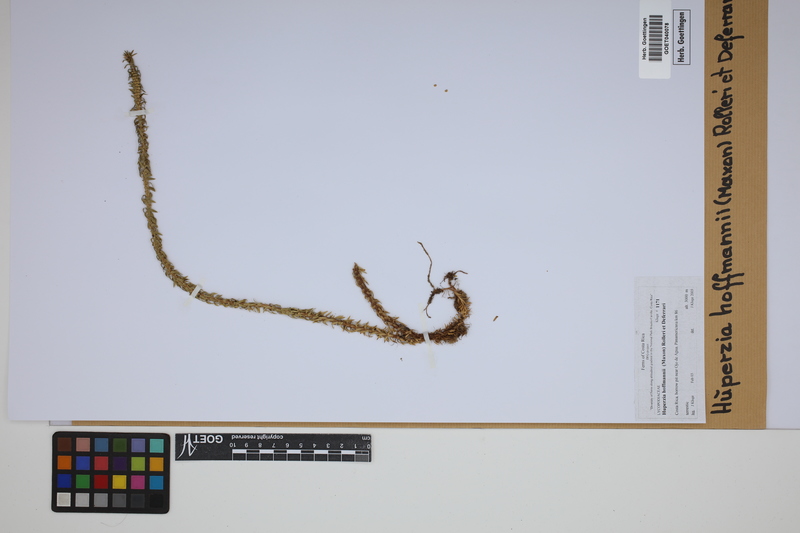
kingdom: Plantae
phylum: Tracheophyta
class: Lycopodiopsida
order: Lycopodiales
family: Lycopodiaceae
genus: Phlegmariurus
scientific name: Phlegmariurus hoffmannii
